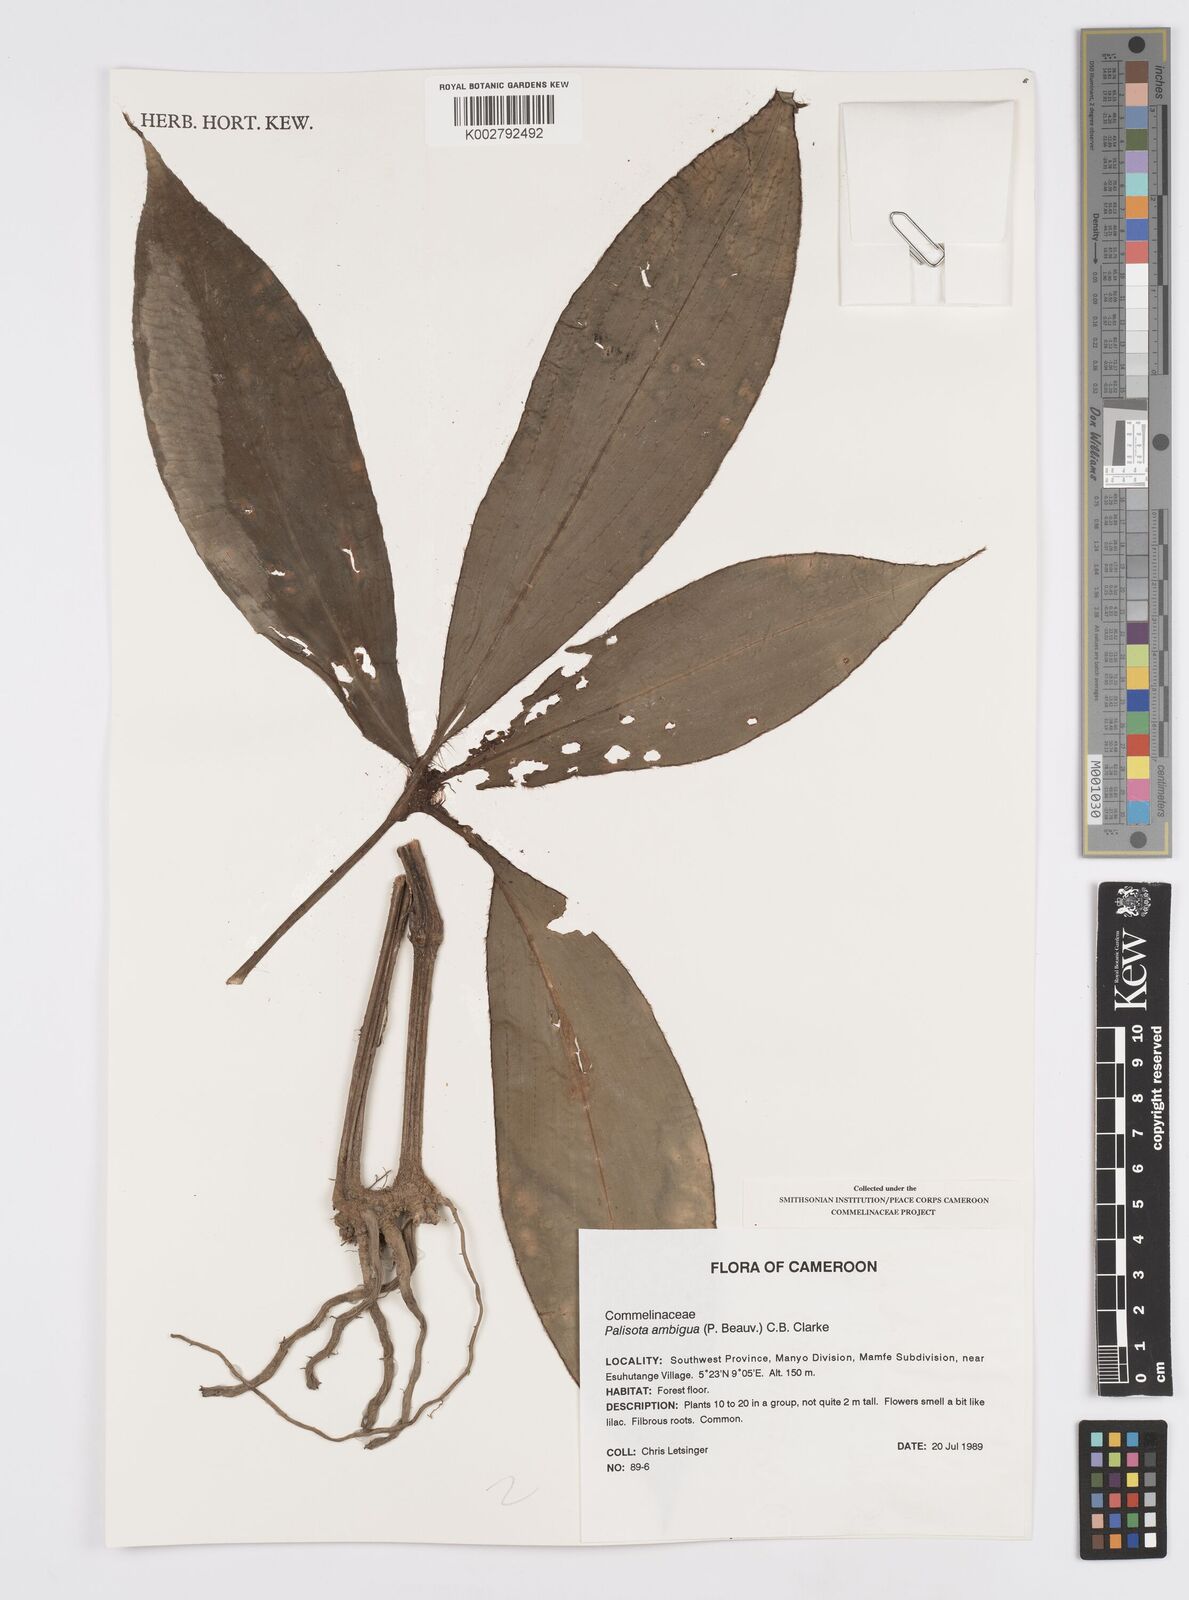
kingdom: Plantae
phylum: Tracheophyta
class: Liliopsida
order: Commelinales
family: Commelinaceae
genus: Palisota
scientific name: Palisota ambigua
